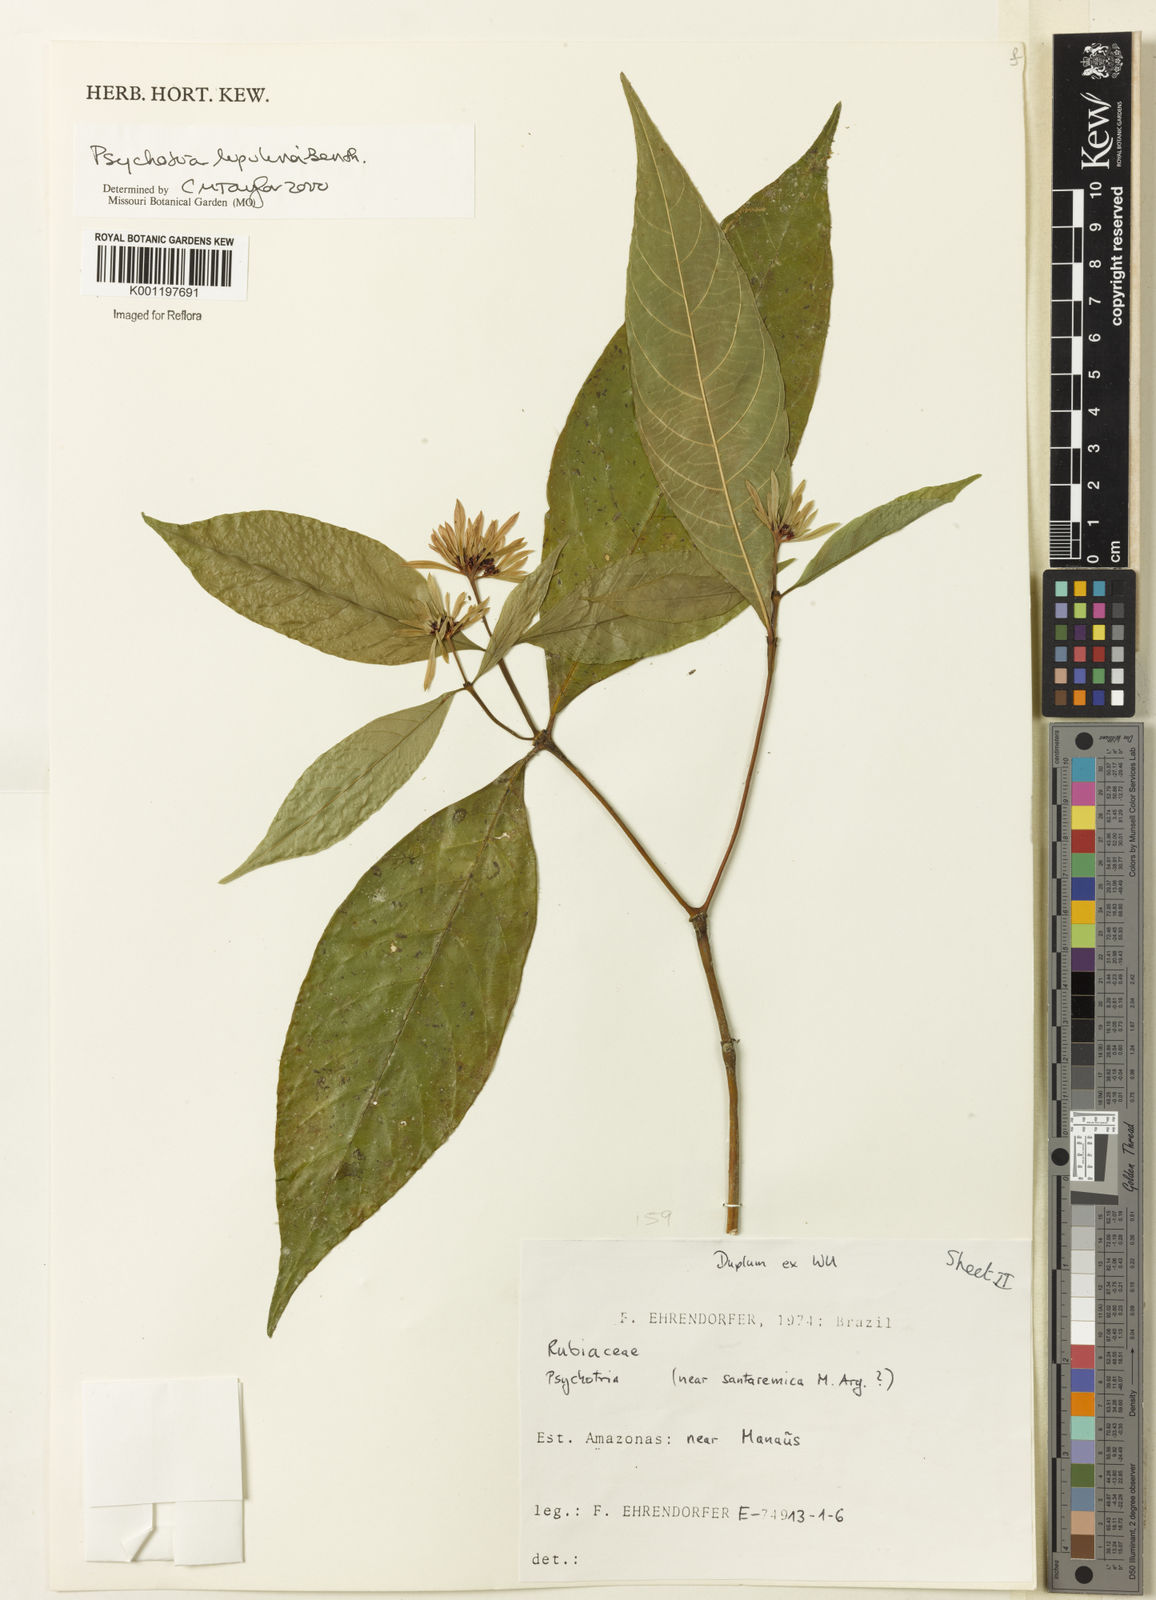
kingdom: Plantae
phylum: Tracheophyta
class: Magnoliopsida
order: Gentianales
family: Rubiaceae
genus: Palicourea
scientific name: Palicourea justiciifolia
